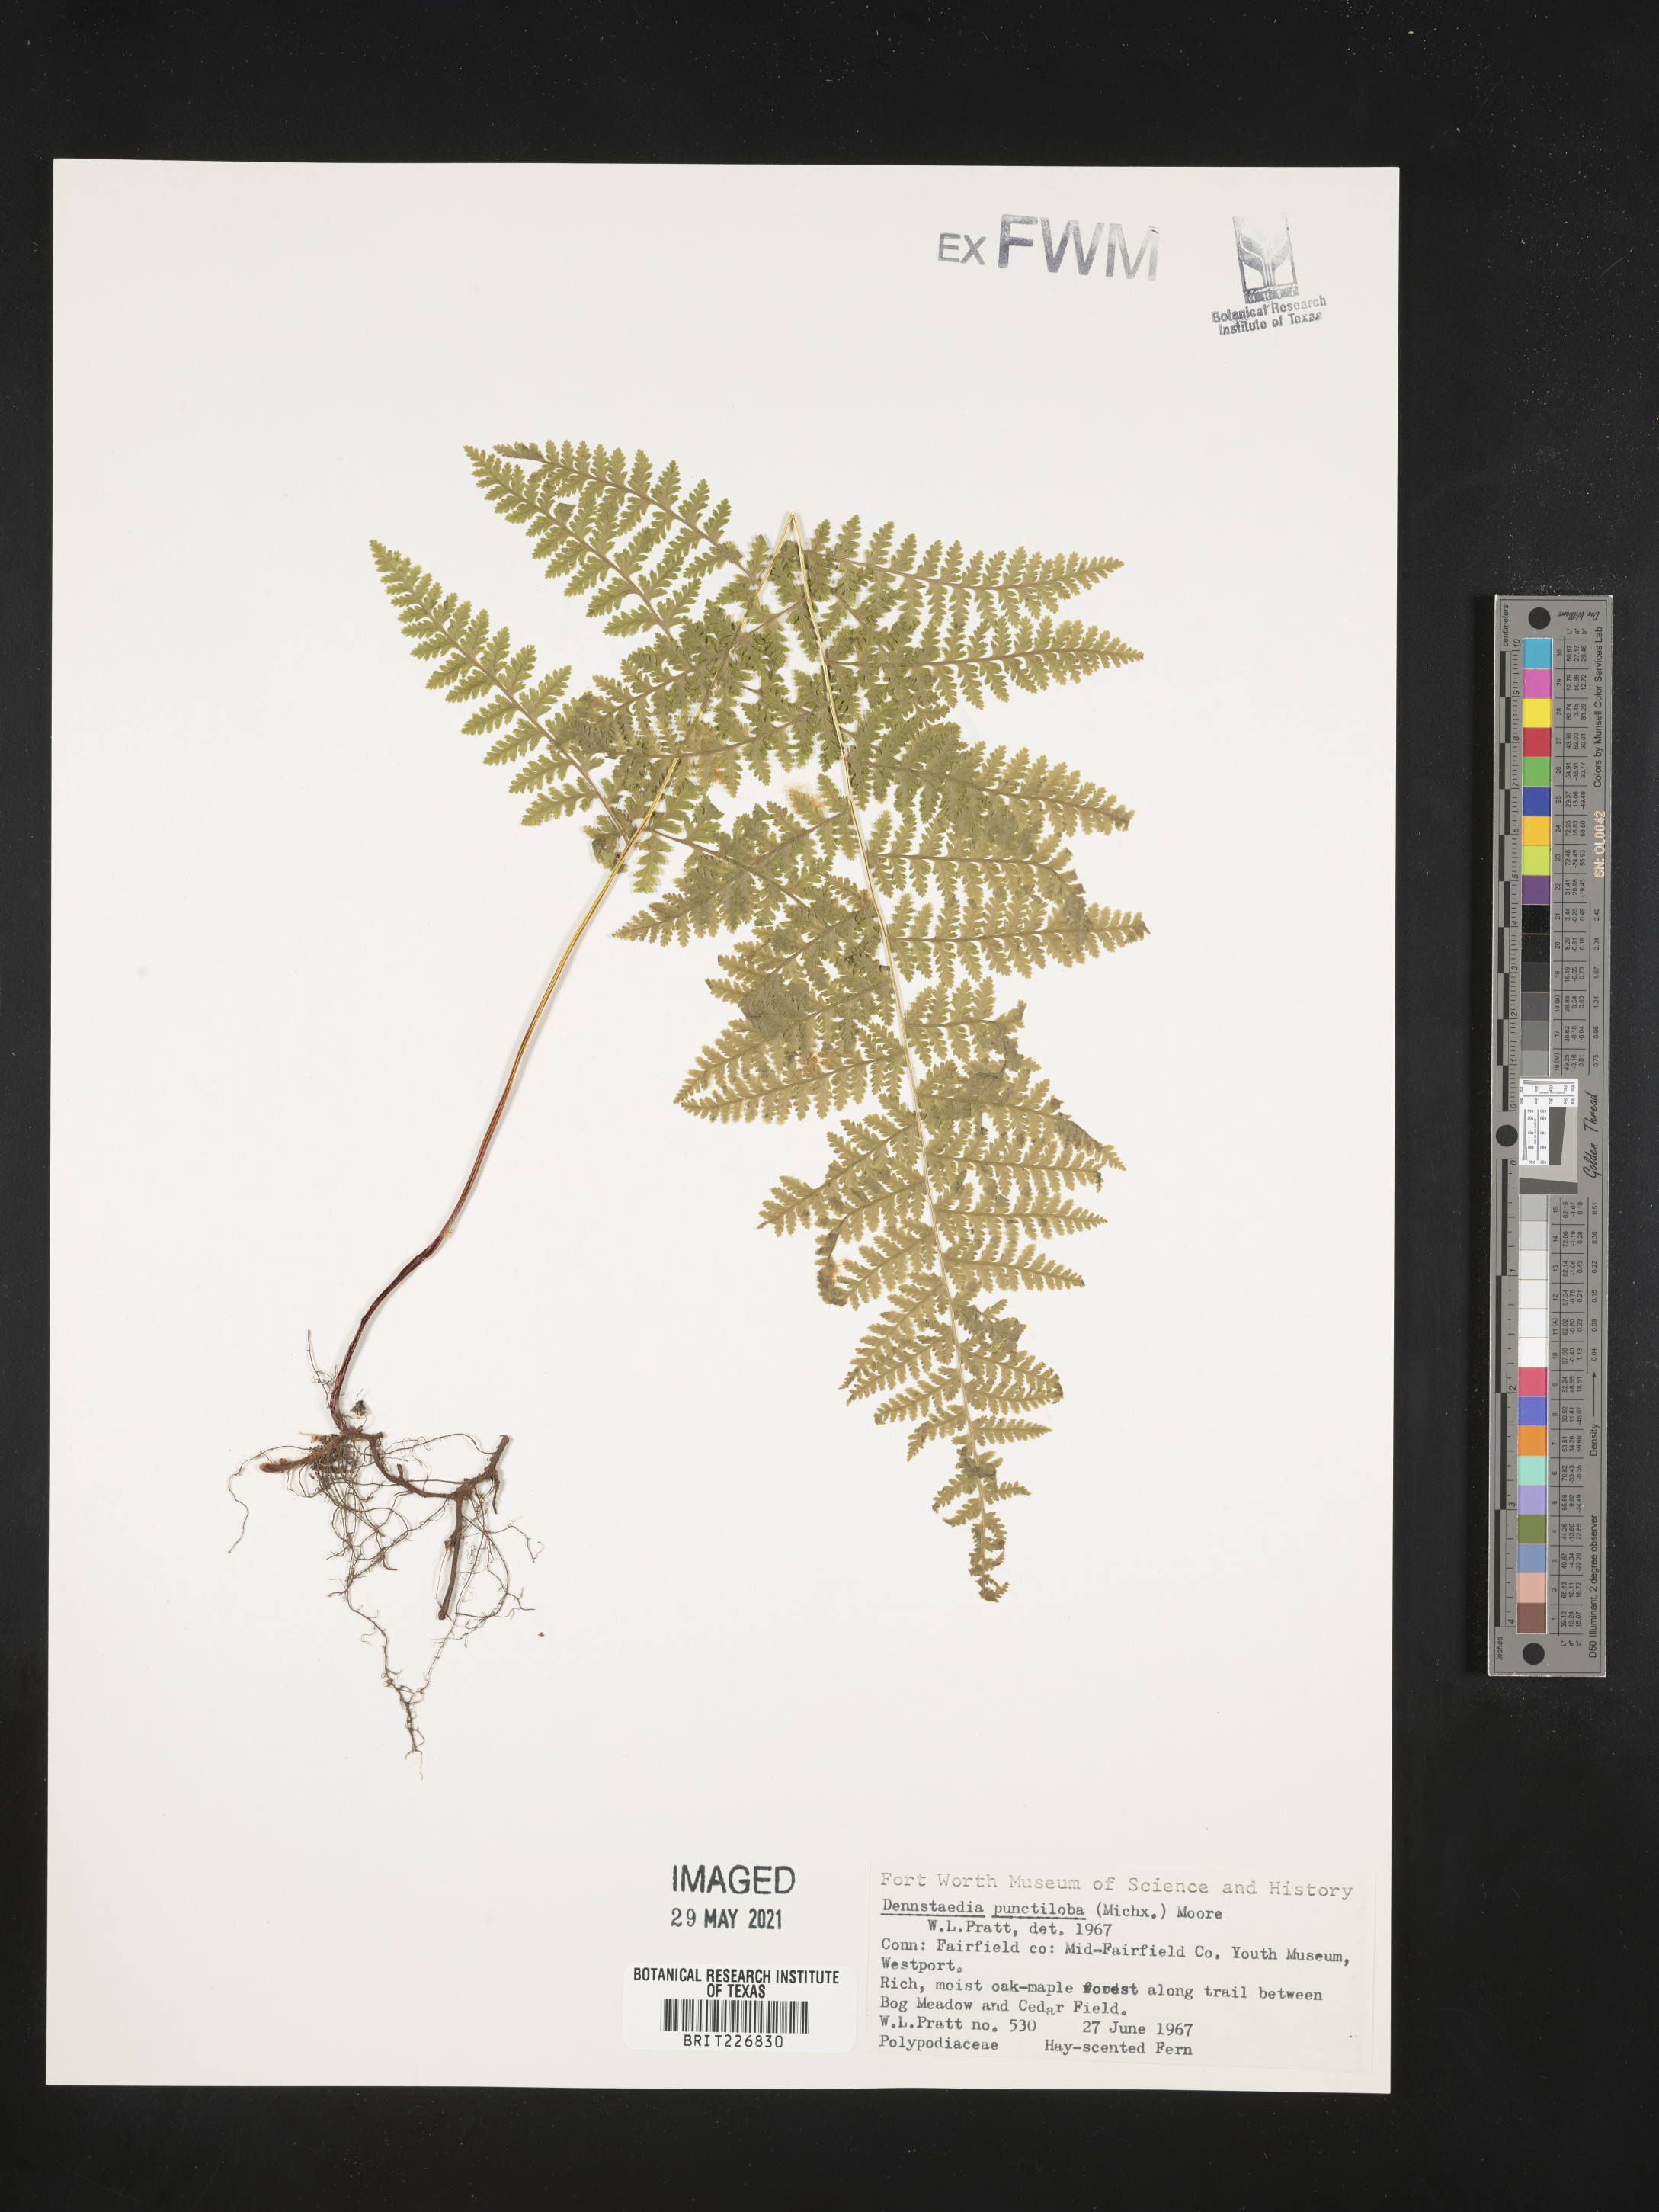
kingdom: Plantae
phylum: Tracheophyta
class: Polypodiopsida
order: Polypodiales
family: Dennstaedtiaceae
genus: Sitobolium
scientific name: Sitobolium punctilobum
